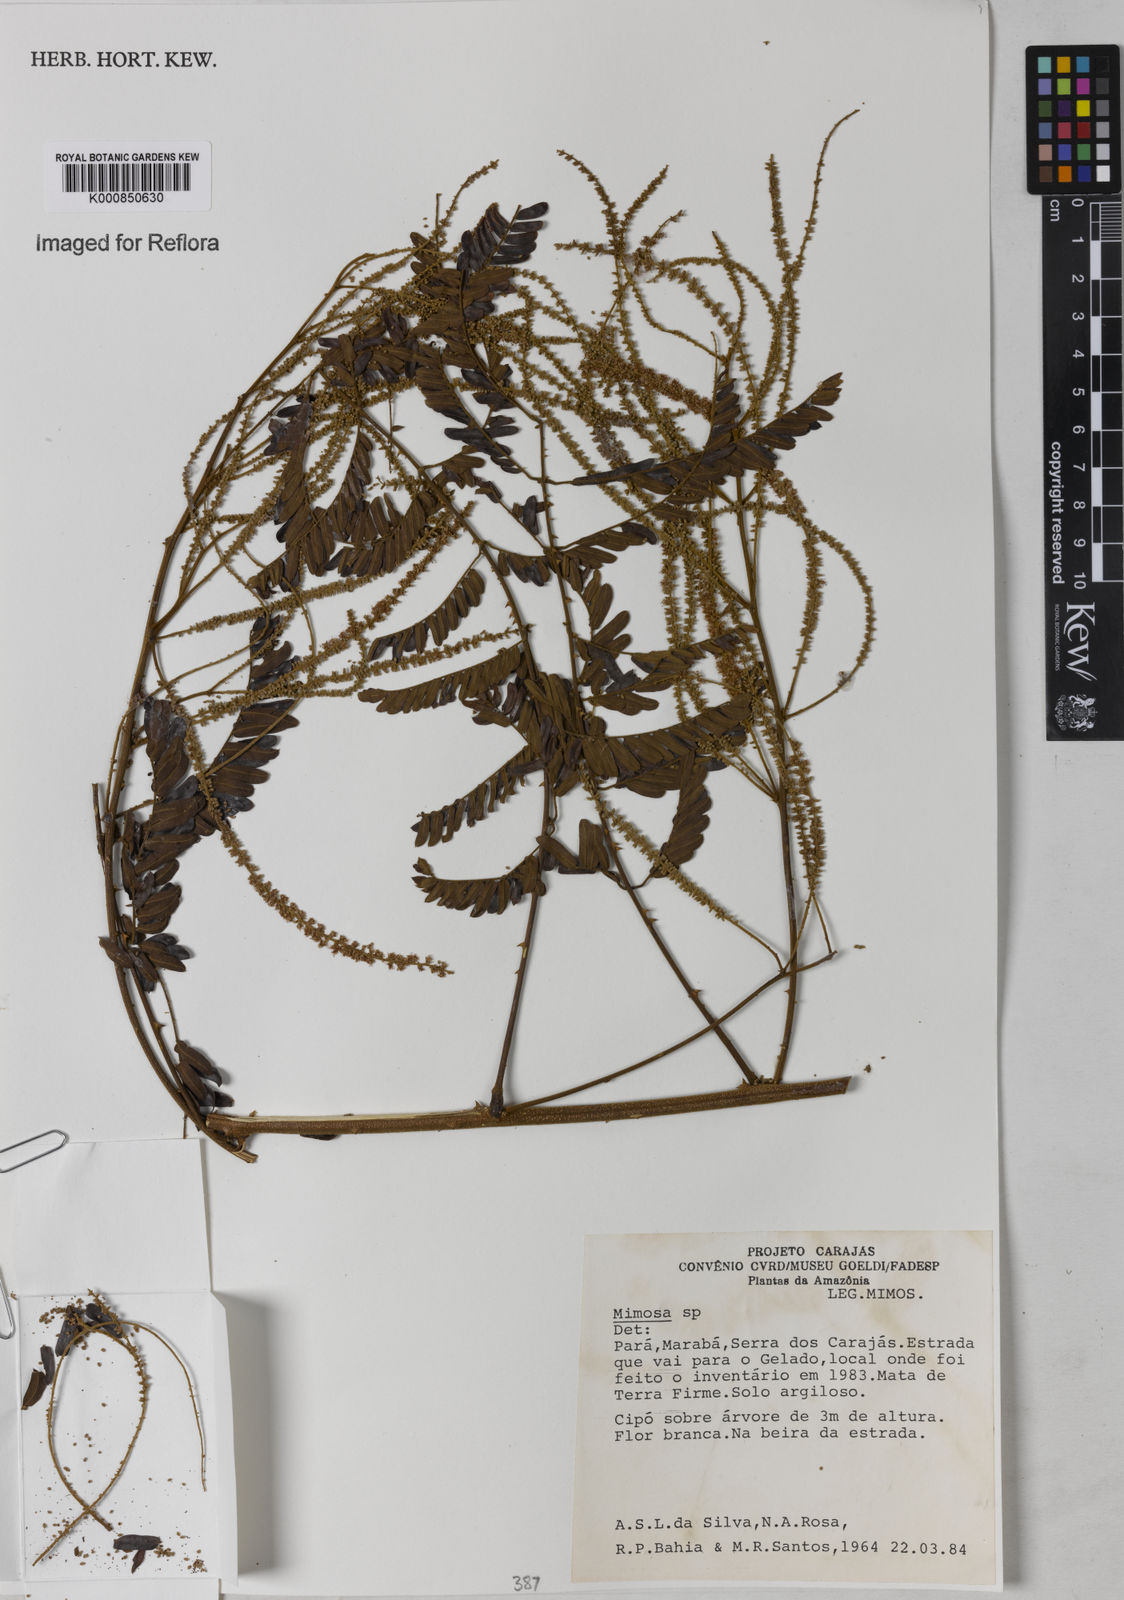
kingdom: Plantae
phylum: Tracheophyta
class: Magnoliopsida
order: Fabales
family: Fabaceae
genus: Mimosa
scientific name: Mimosa
